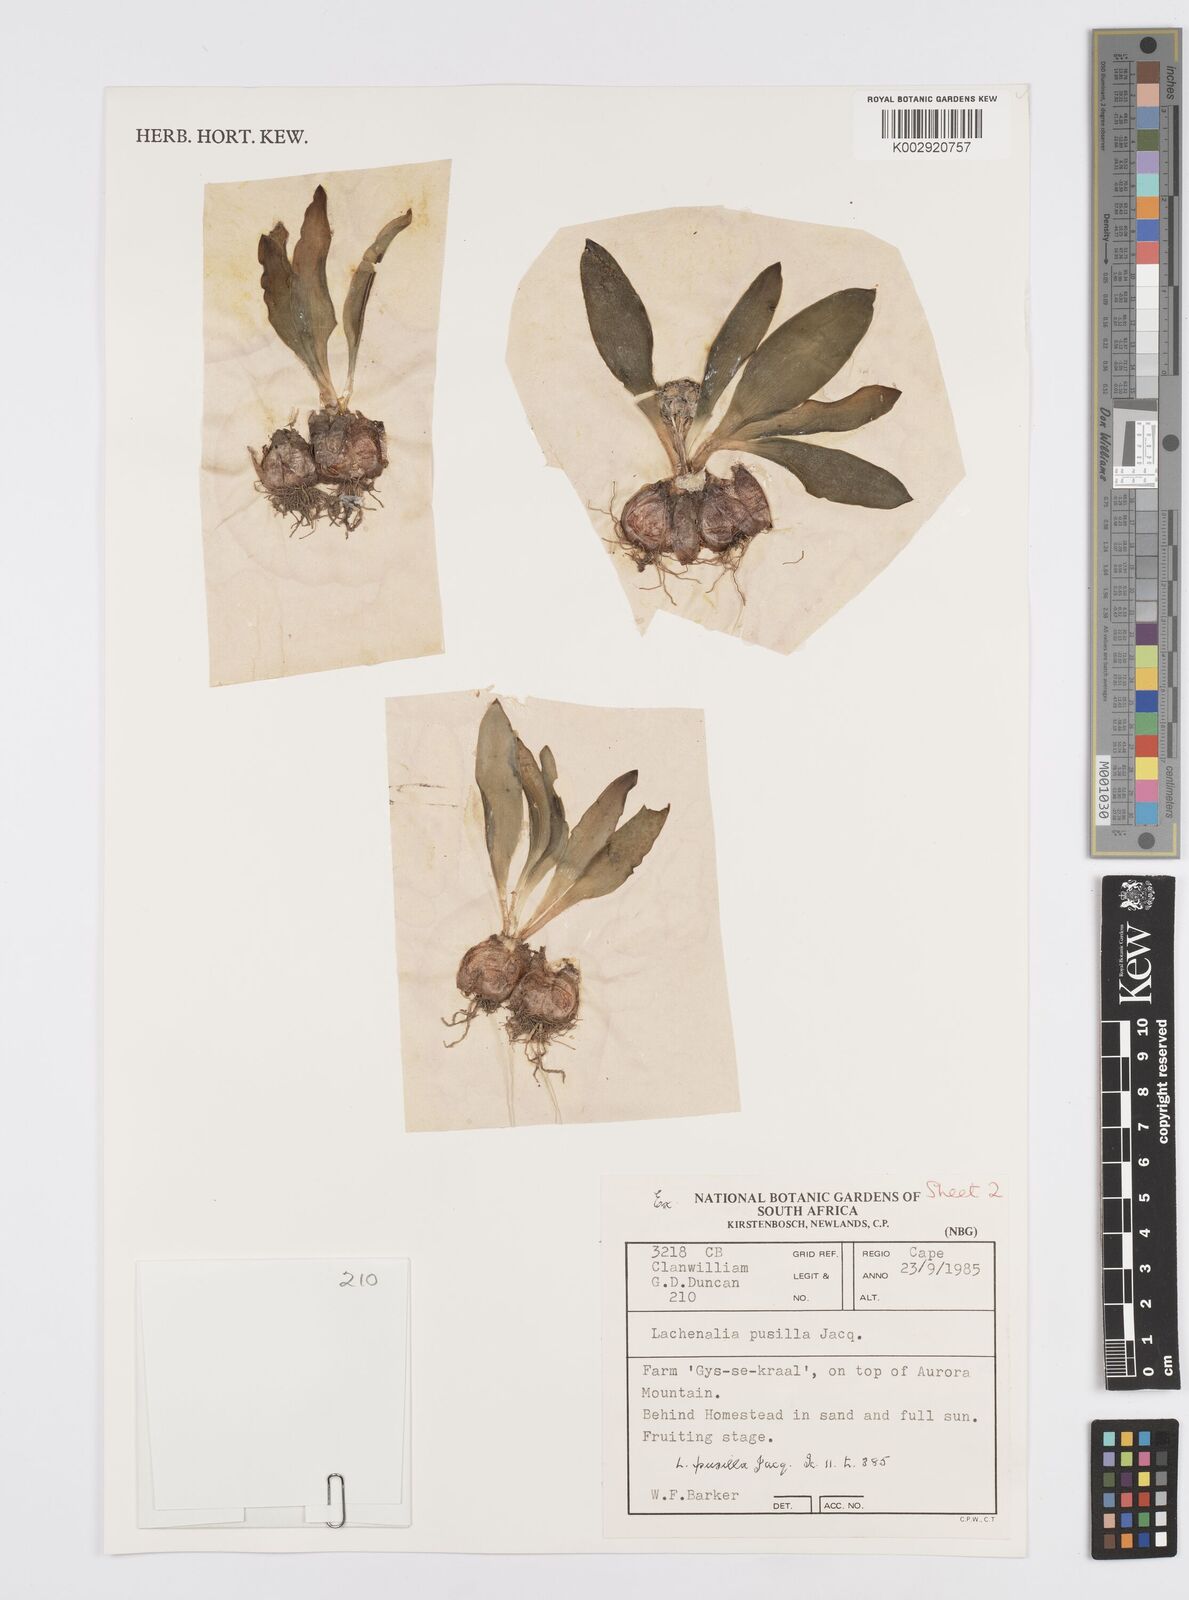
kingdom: Plantae
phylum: Tracheophyta
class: Liliopsida
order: Asparagales
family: Asparagaceae
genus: Lachenalia
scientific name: Lachenalia pusilla
